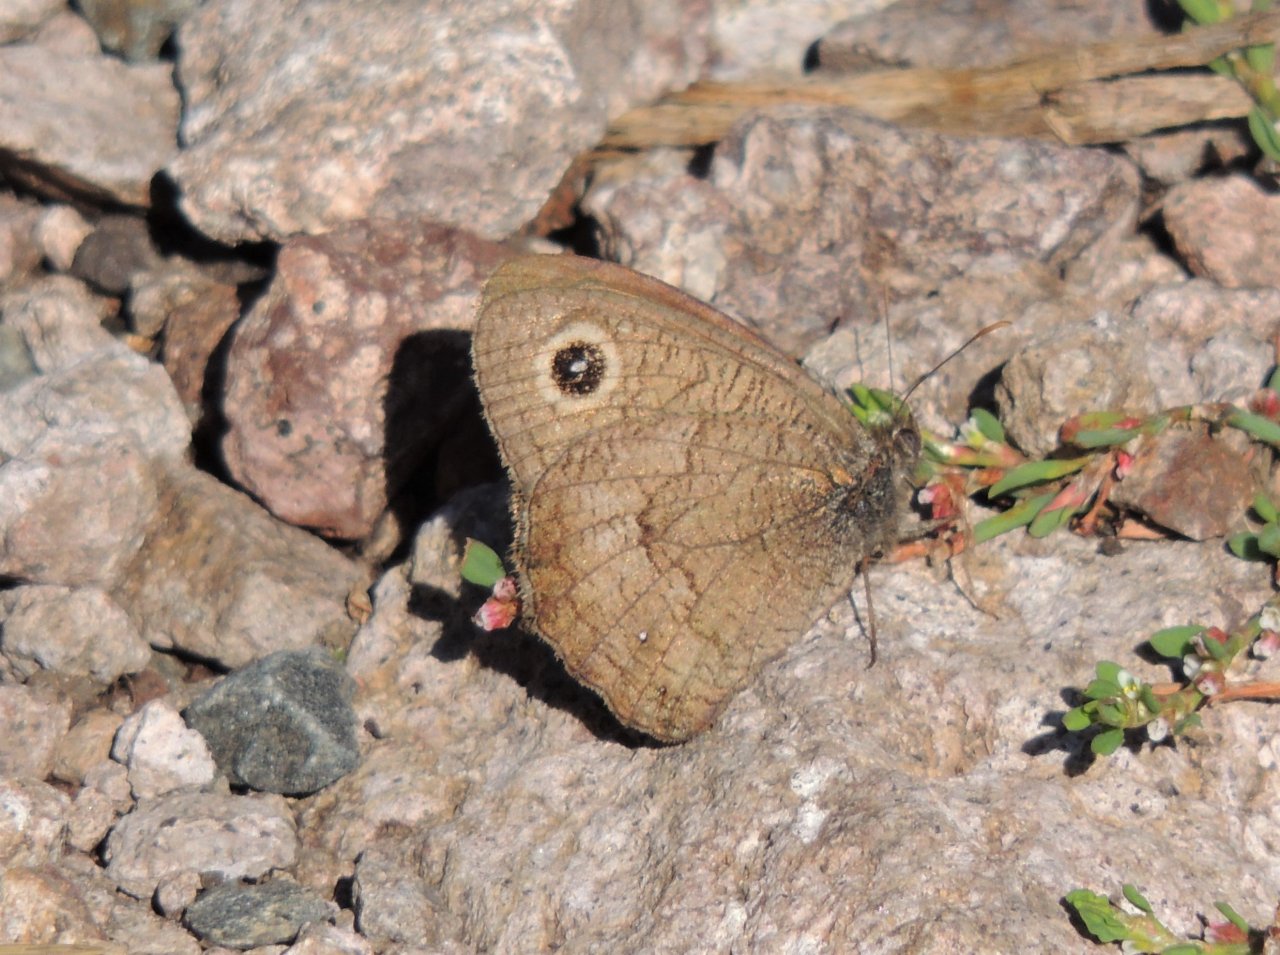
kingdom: Animalia
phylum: Arthropoda
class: Insecta
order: Lepidoptera
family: Nymphalidae
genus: Cercyonis
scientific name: Cercyonis pegala
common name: Common Wood-Nymph
